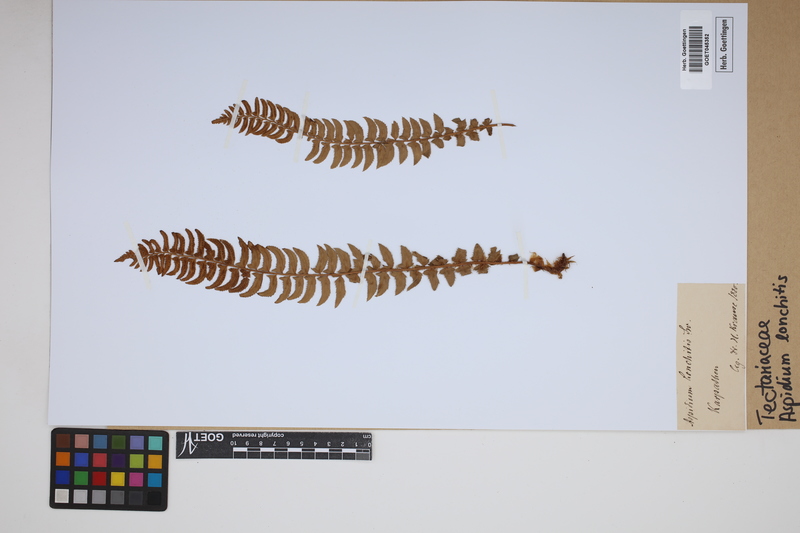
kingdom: Plantae
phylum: Tracheophyta
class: Polypodiopsida
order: Polypodiales
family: Dryopteridaceae
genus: Polystichum
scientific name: Polystichum lonchitis
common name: Holly fern
